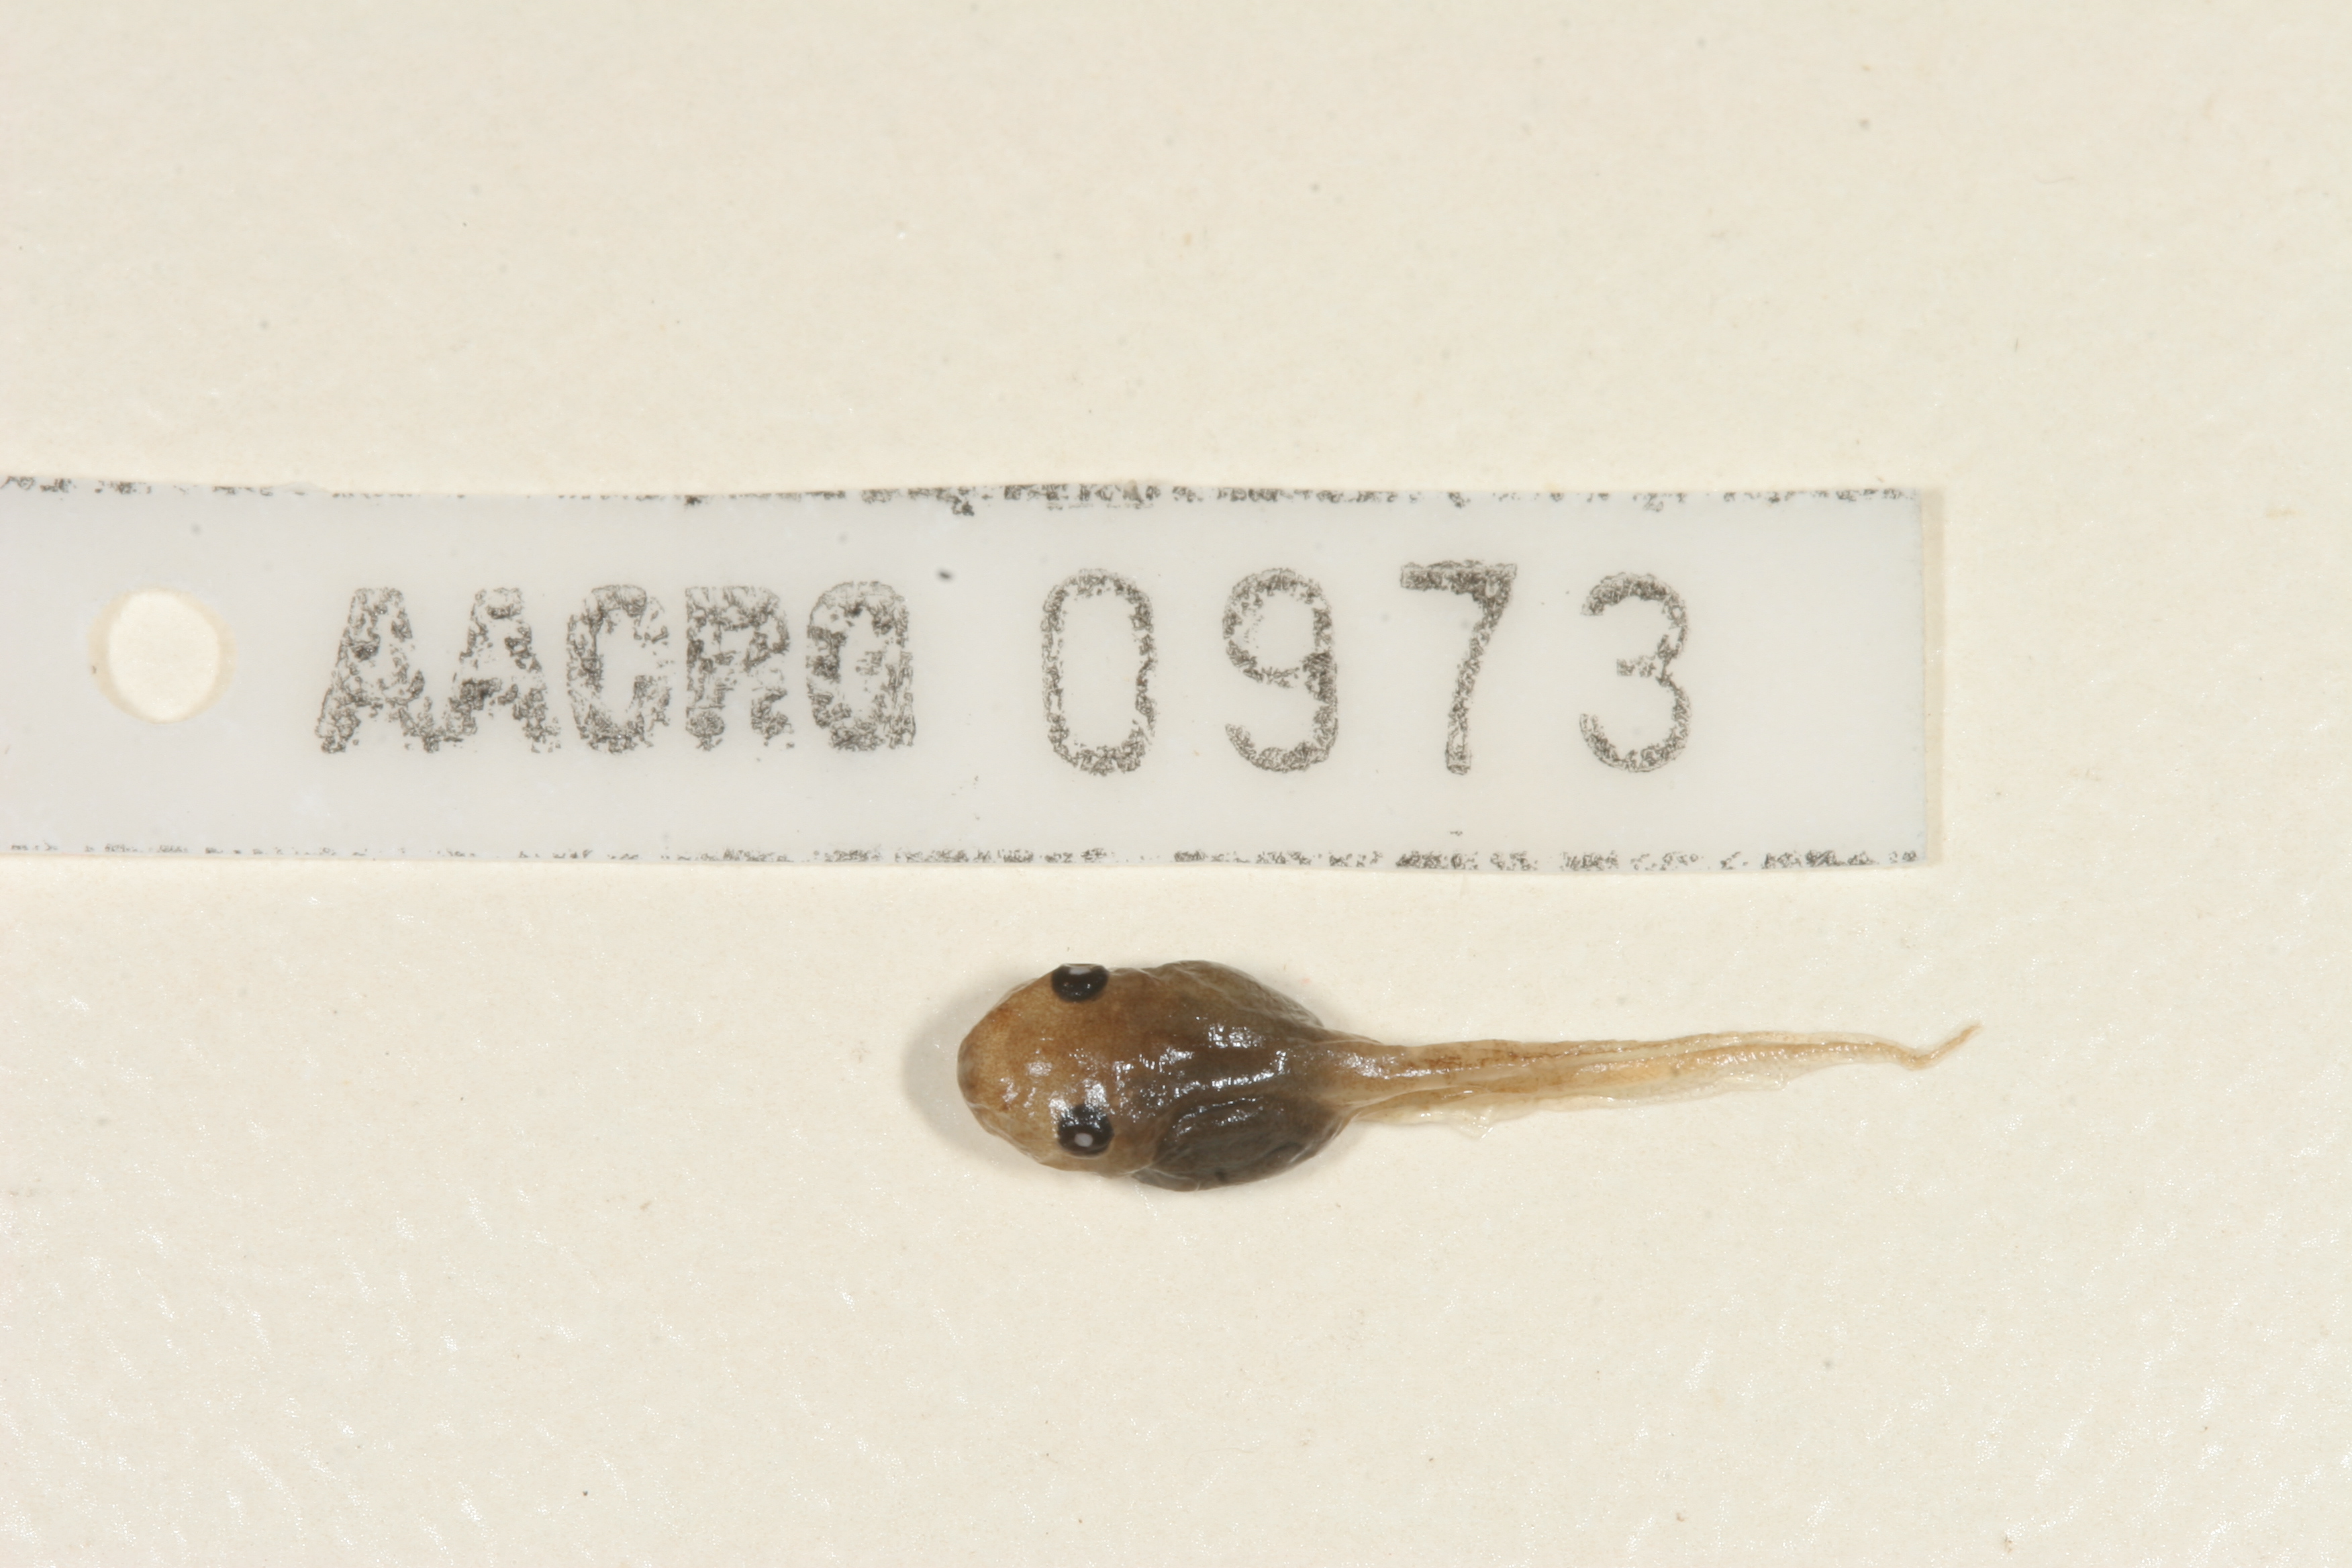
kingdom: Animalia
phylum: Chordata
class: Amphibia
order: Anura
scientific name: Anura
